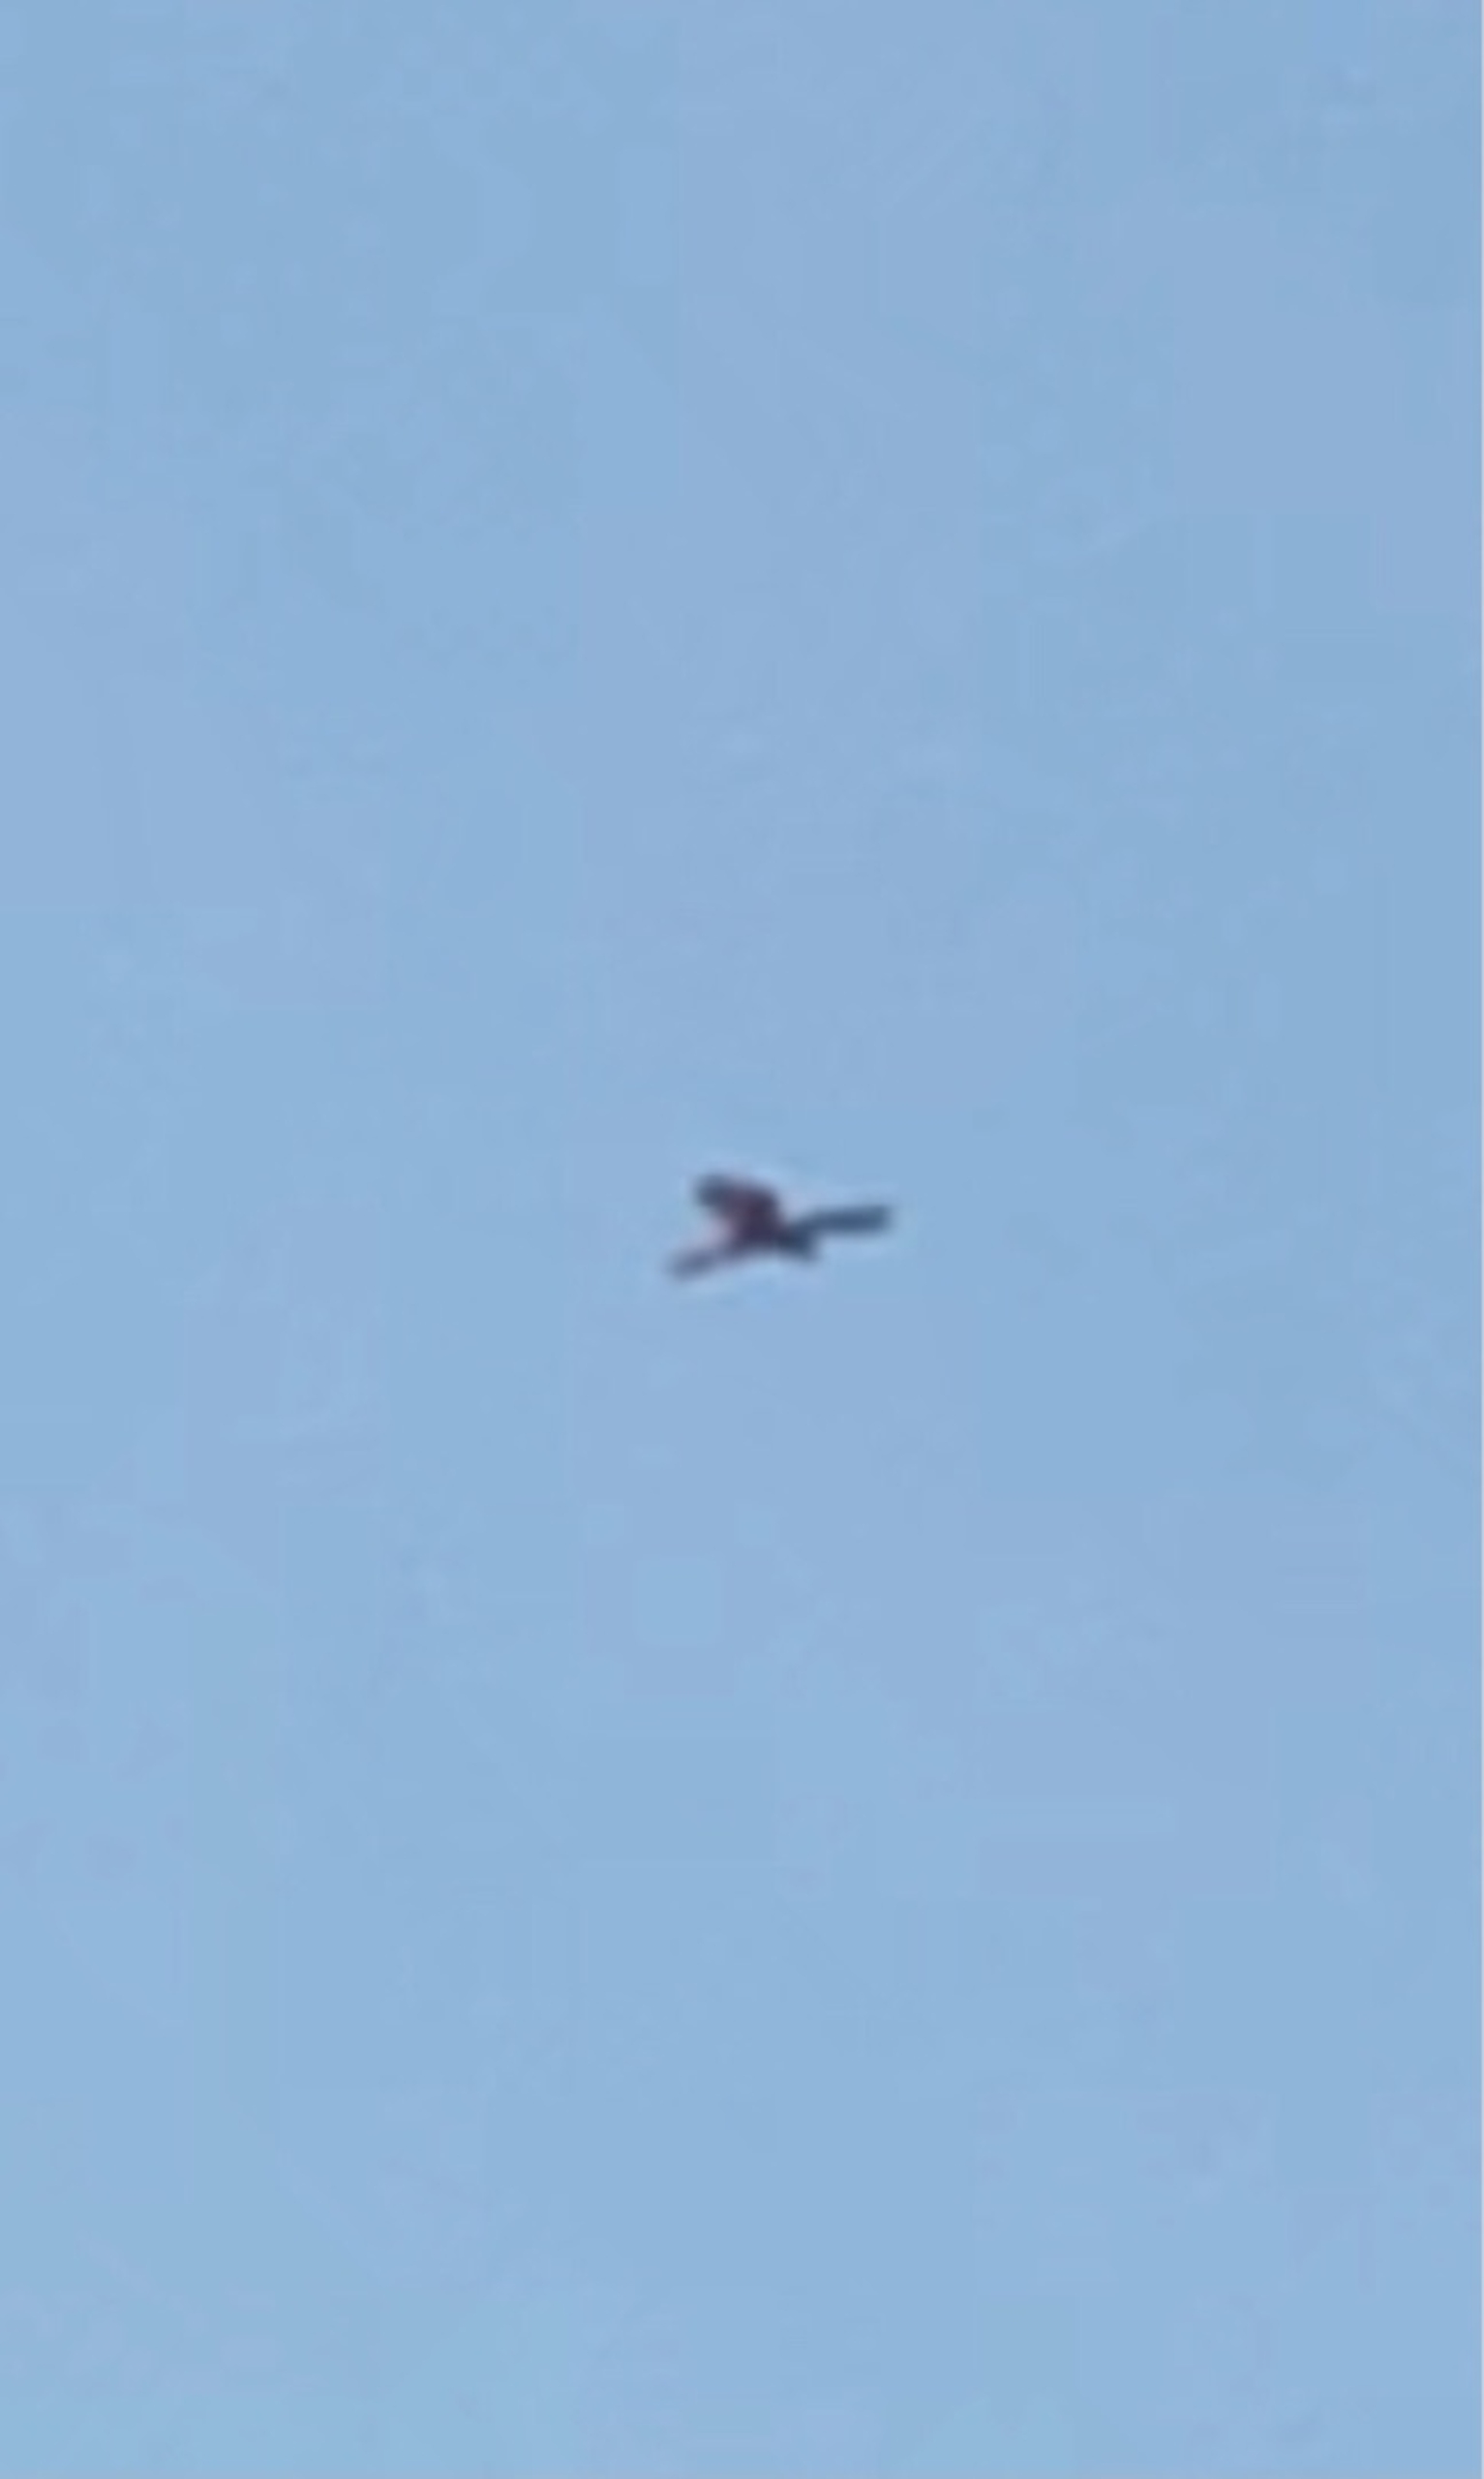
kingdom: Animalia
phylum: Chordata
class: Aves
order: Falconiformes
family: Falconidae
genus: Falco
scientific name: Falco tinnunculus
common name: Tårnfalk
